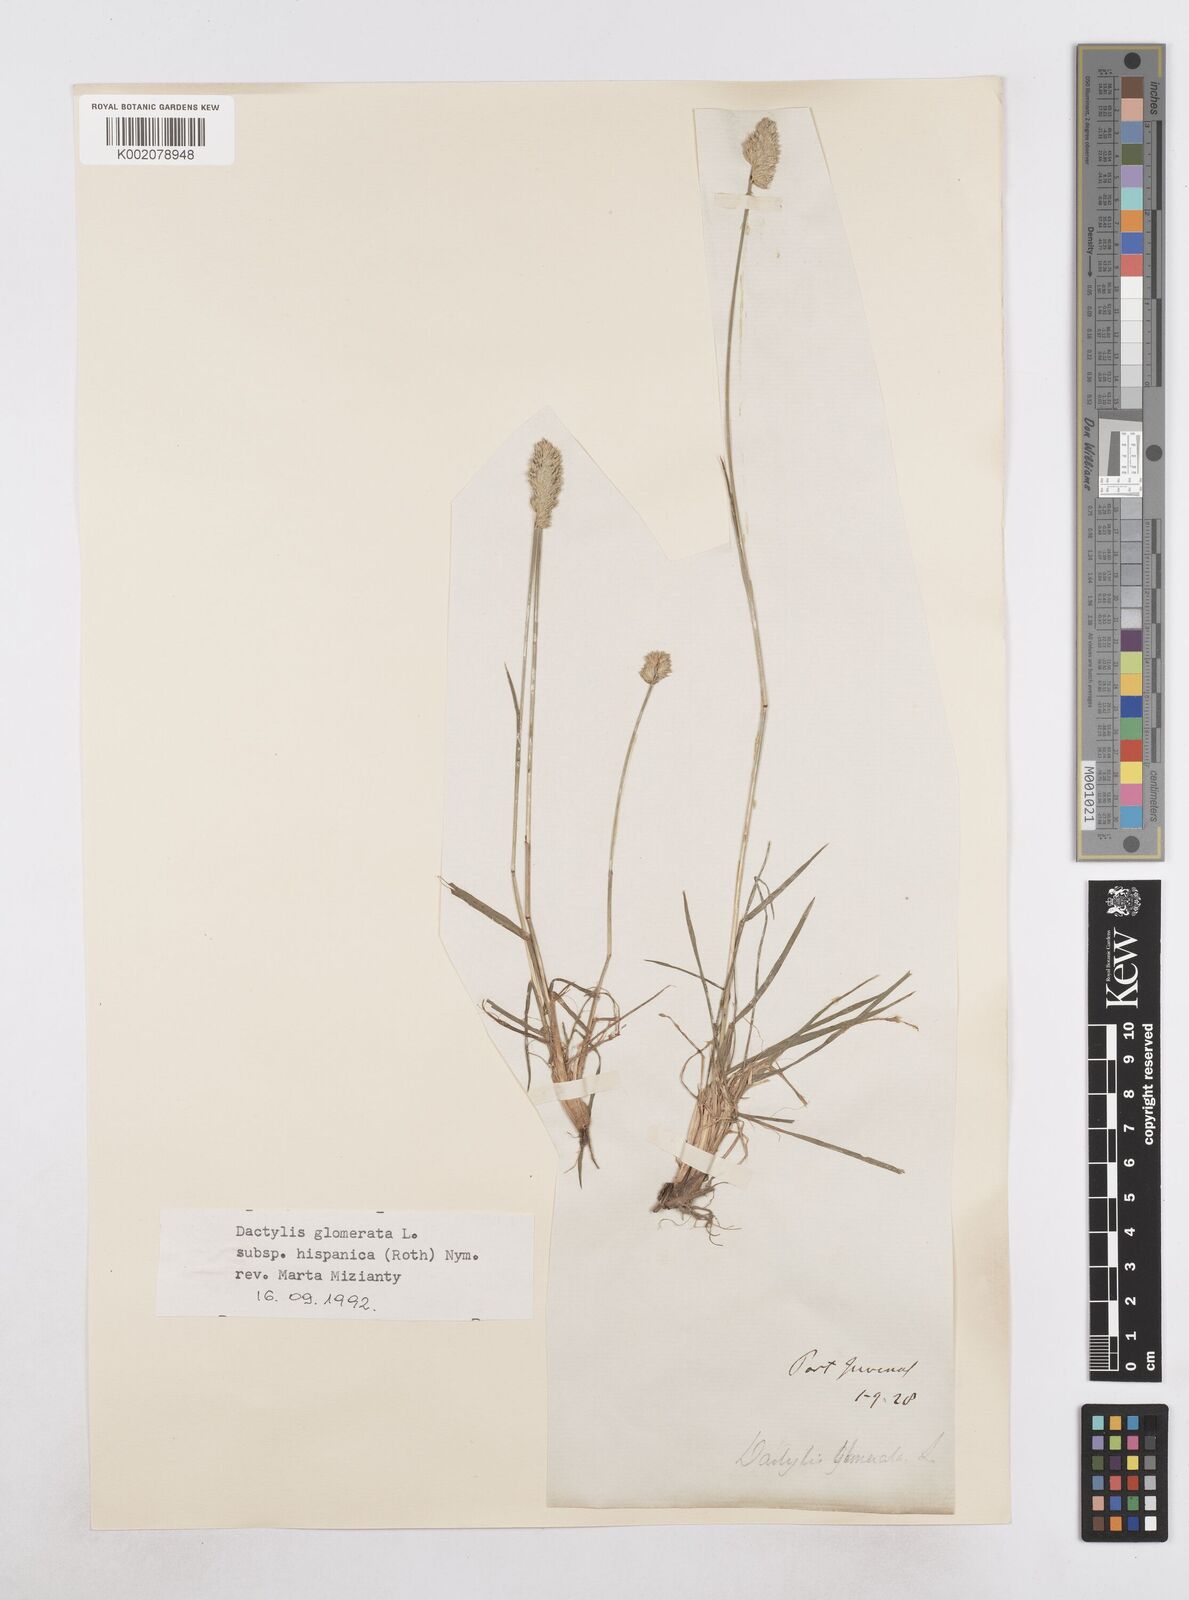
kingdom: Plantae
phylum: Tracheophyta
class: Liliopsida
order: Poales
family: Poaceae
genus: Dactylis
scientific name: Dactylis glomerata
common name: Orchardgrass
